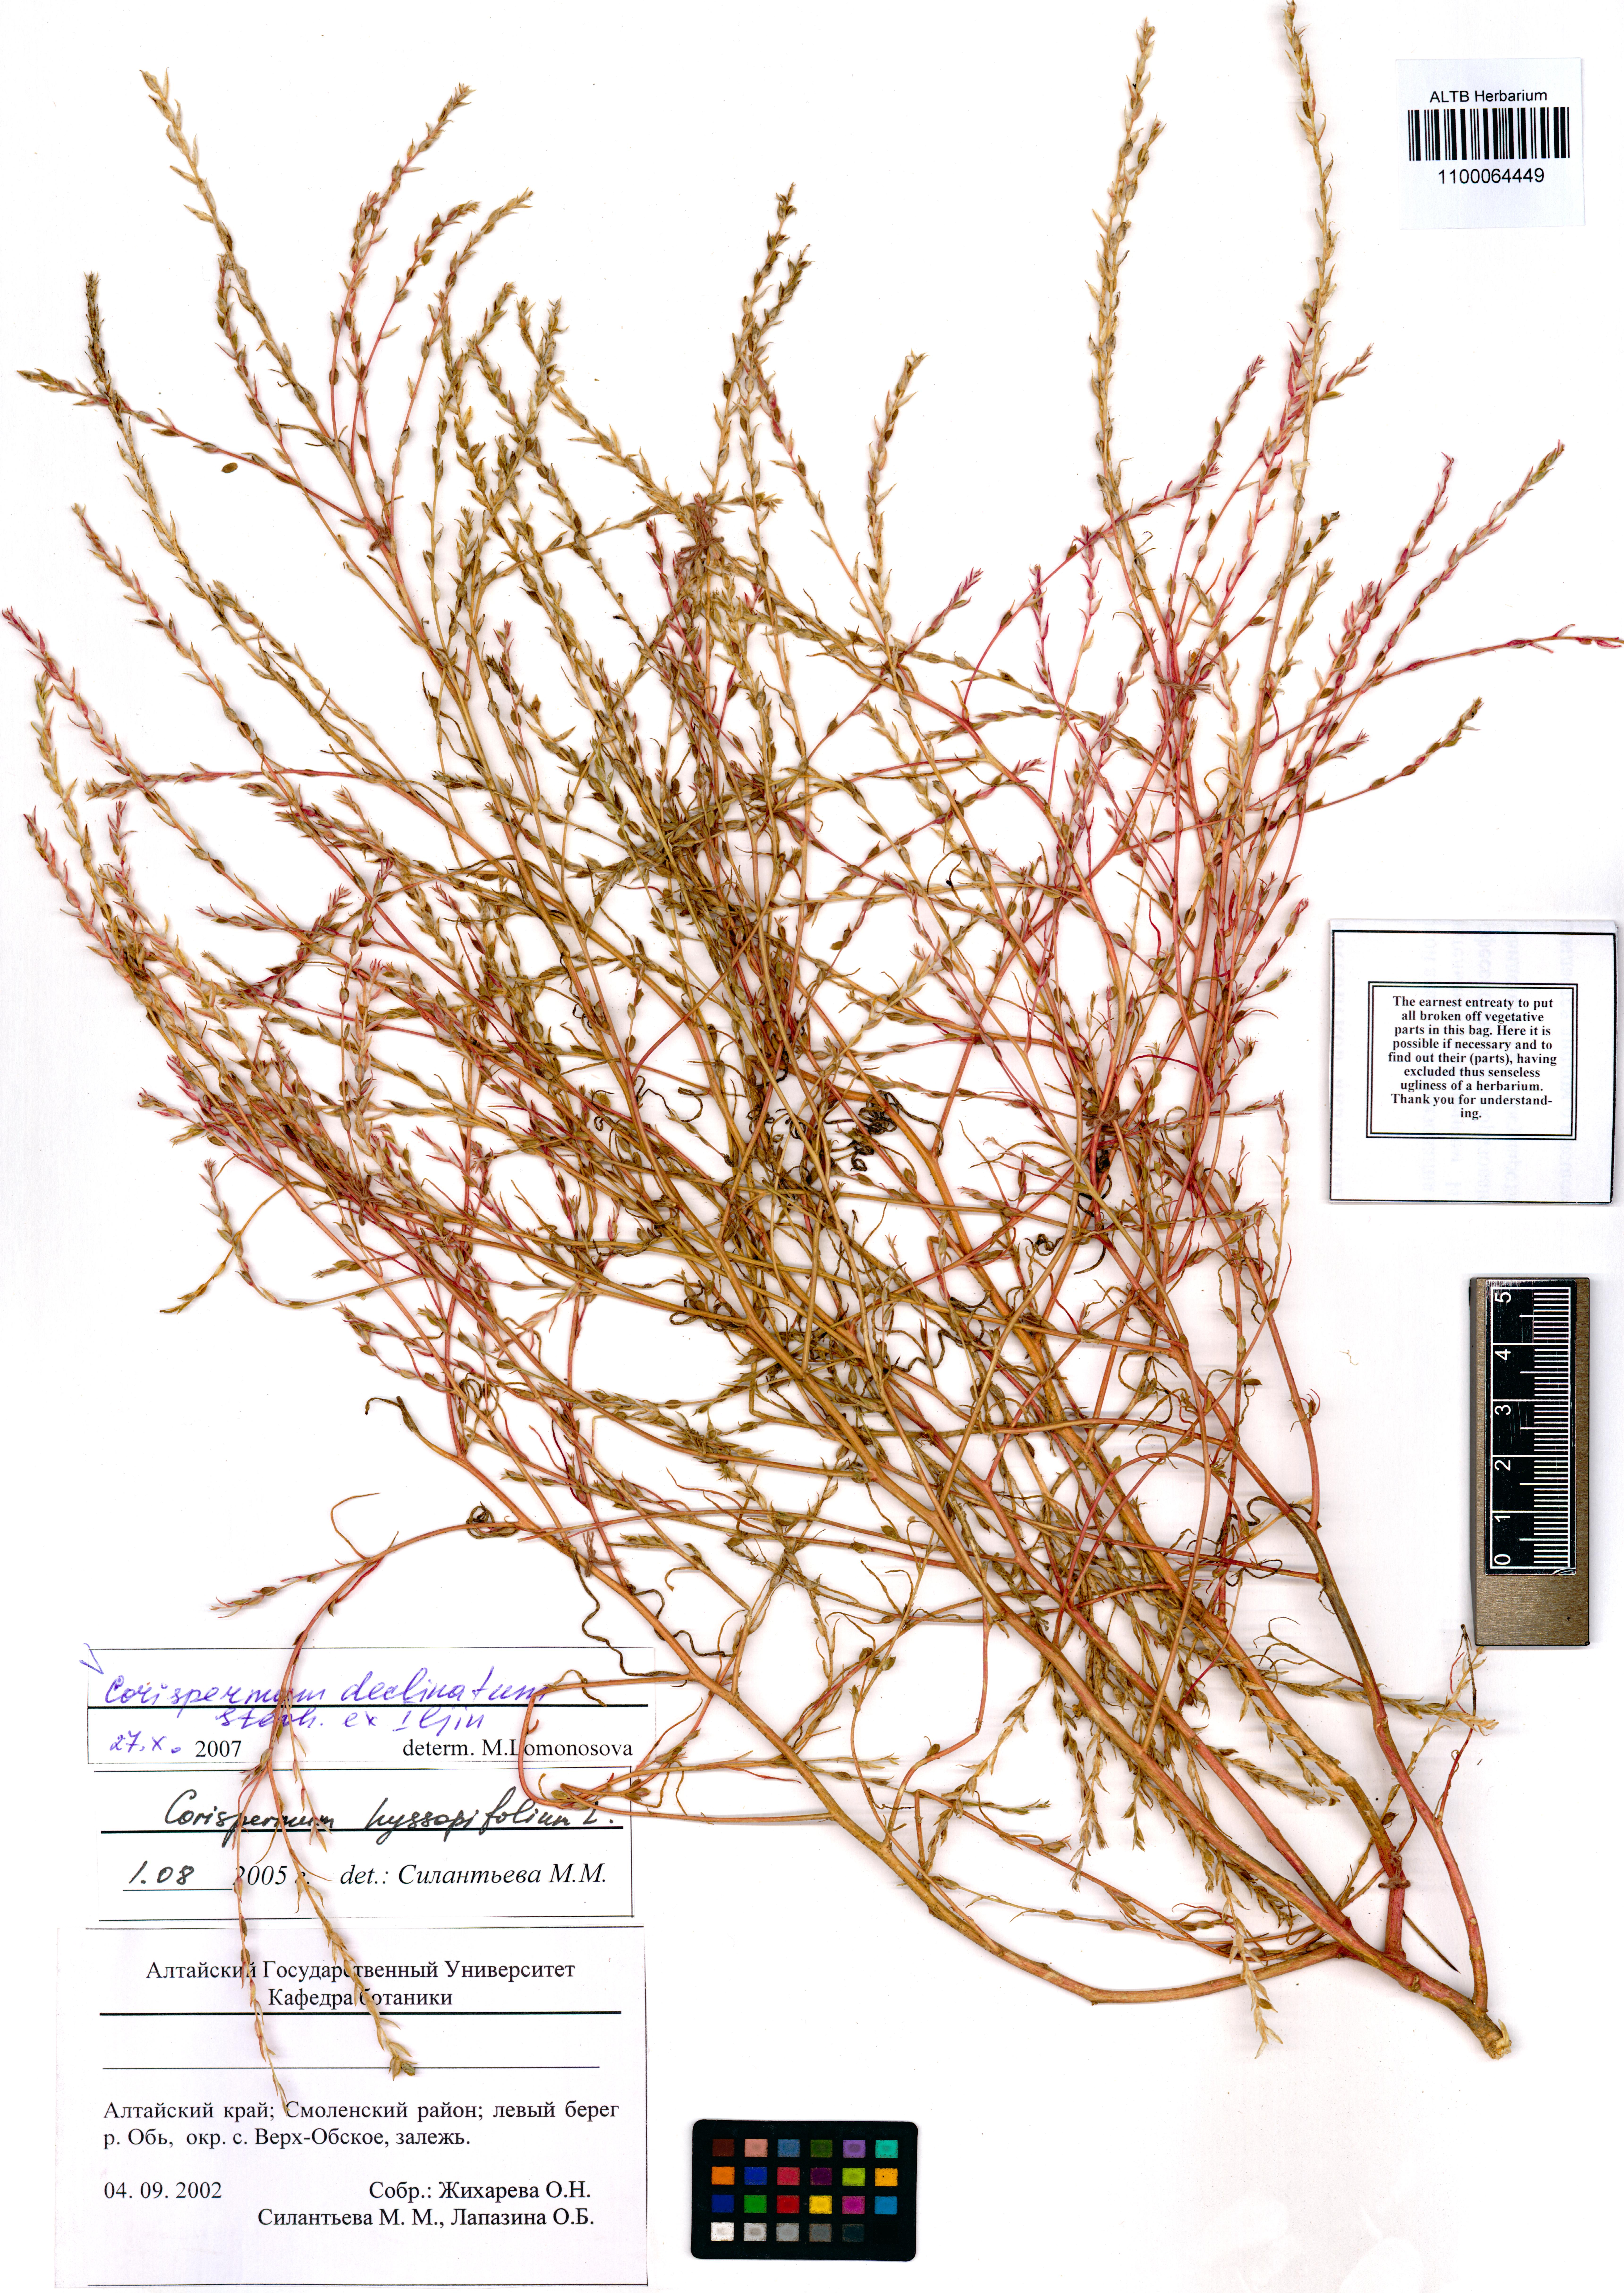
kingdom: Plantae
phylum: Tracheophyta
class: Magnoliopsida
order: Caryophyllales
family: Amaranthaceae
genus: Corispermum
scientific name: Corispermum declinatum
